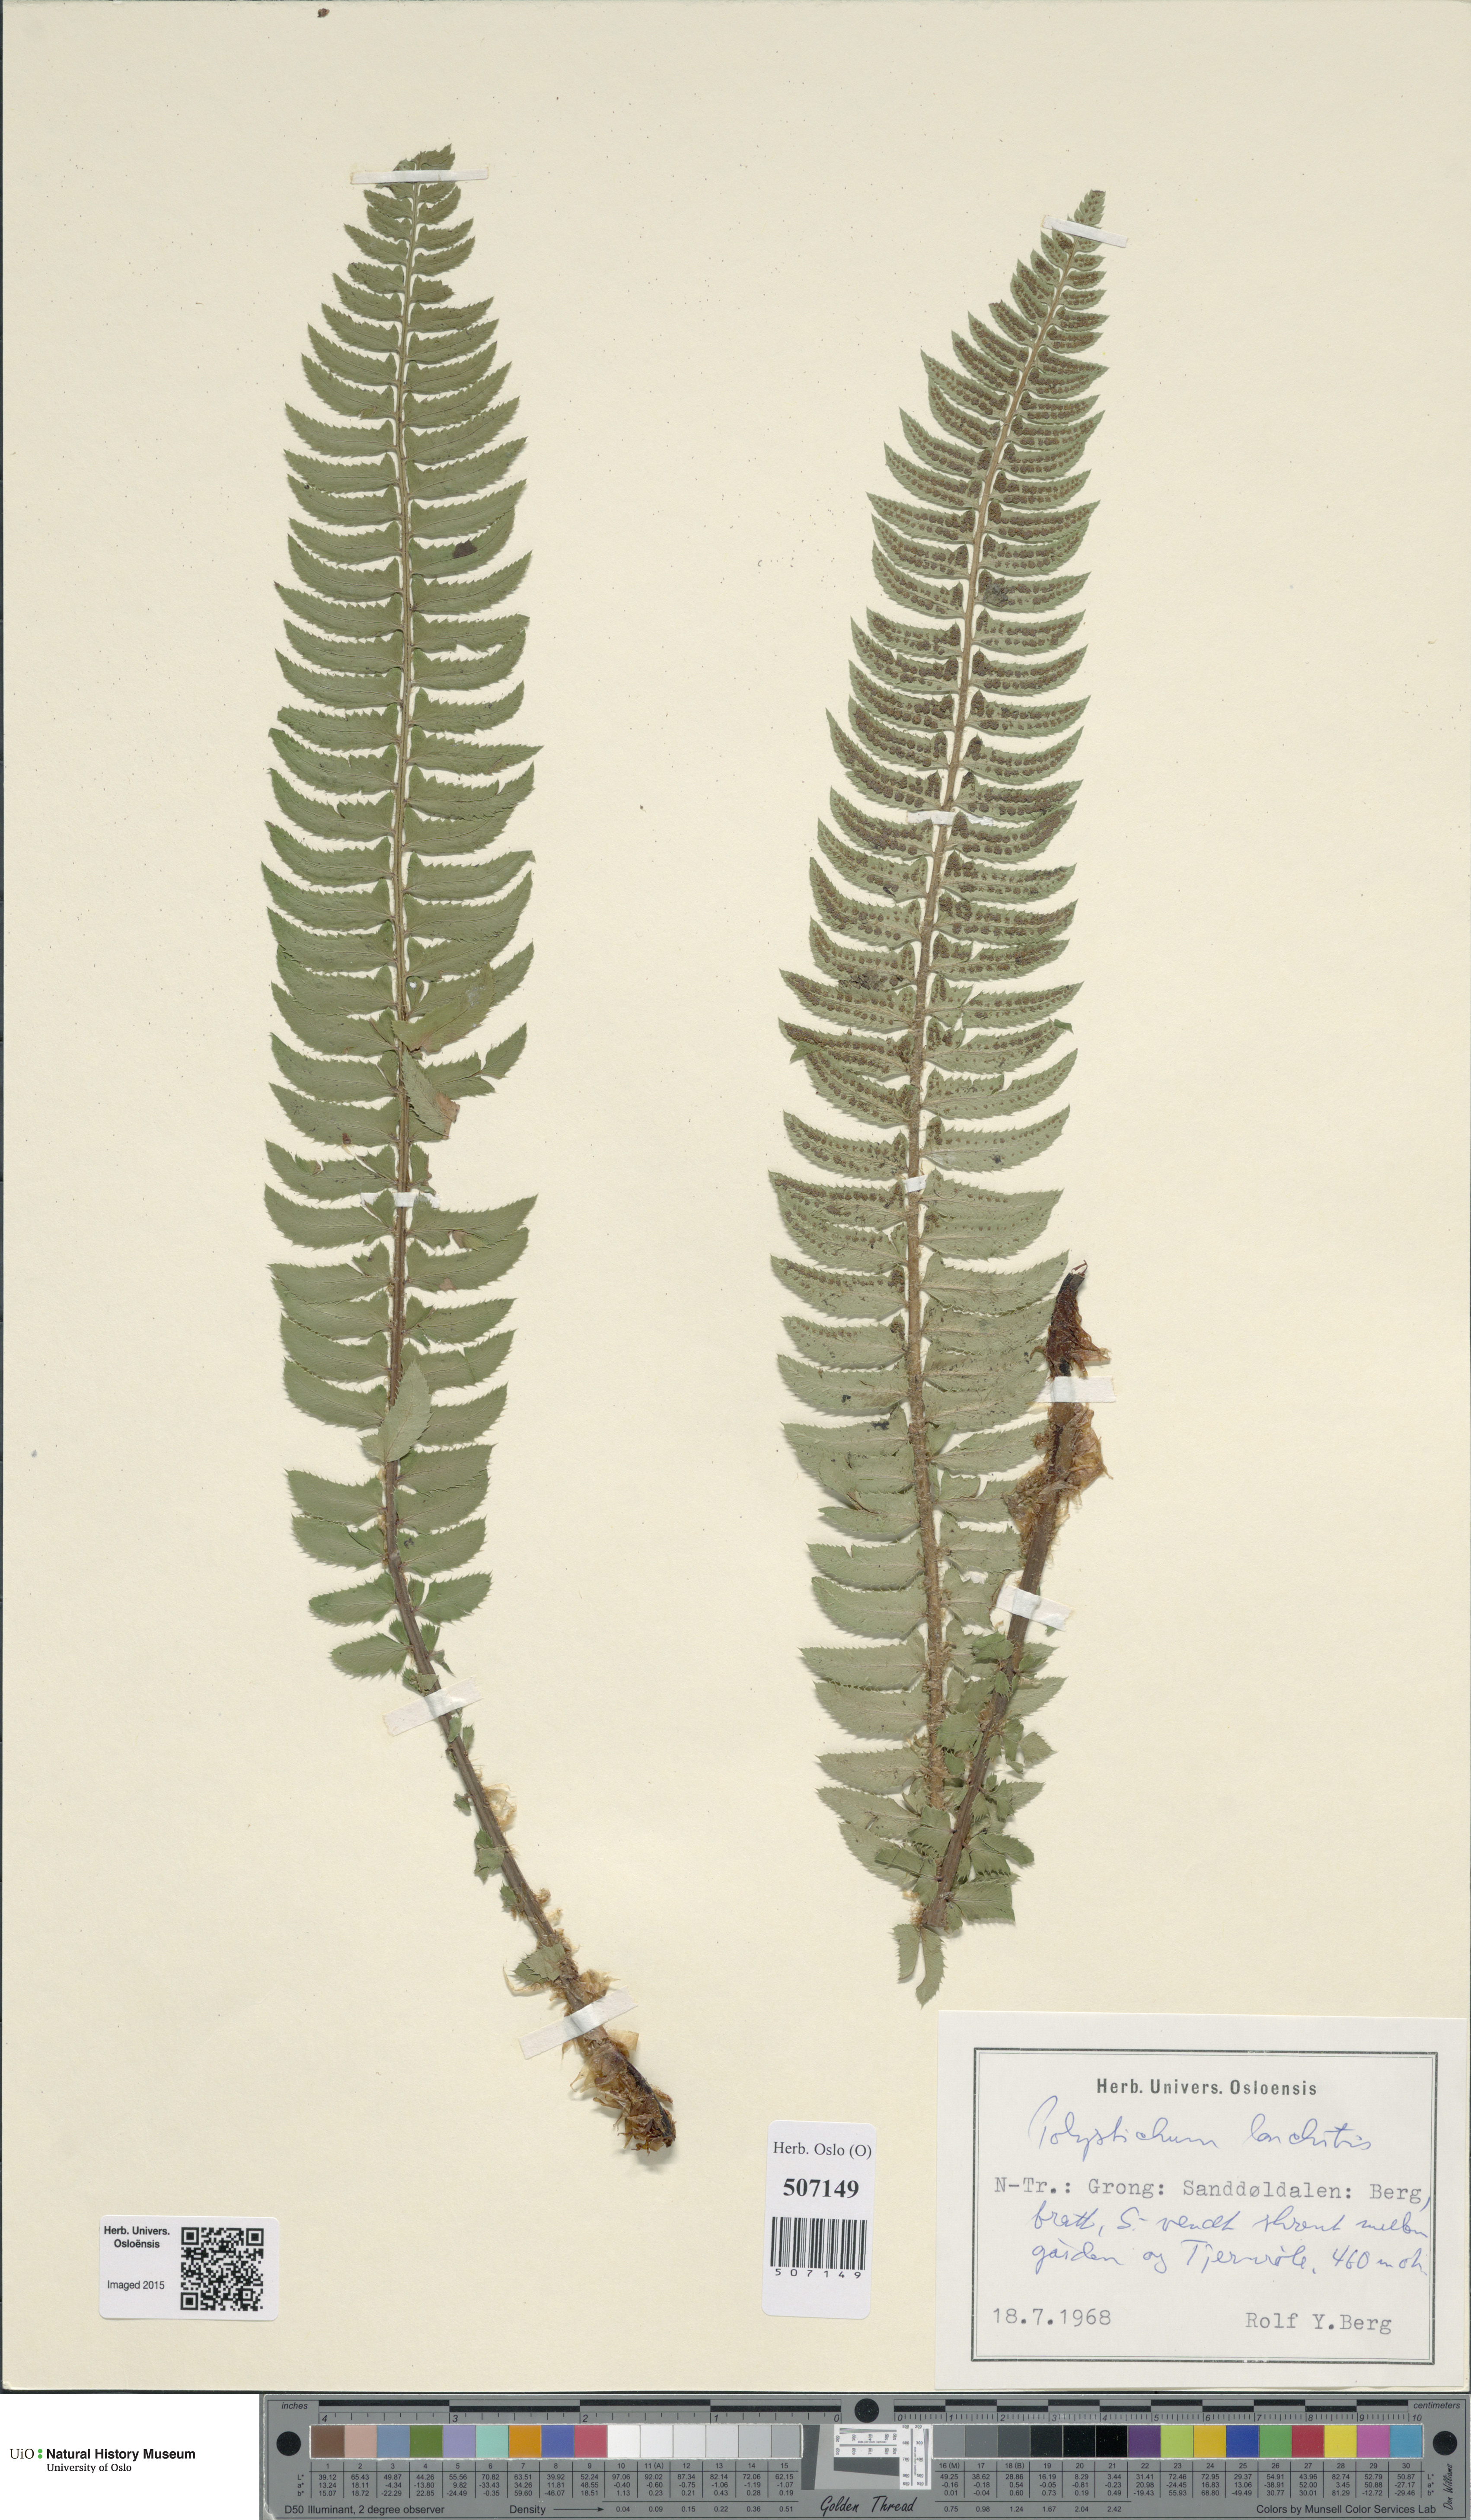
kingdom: Plantae
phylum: Tracheophyta
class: Polypodiopsida
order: Polypodiales
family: Dryopteridaceae
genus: Polystichum
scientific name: Polystichum lonchitis
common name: Holly fern
